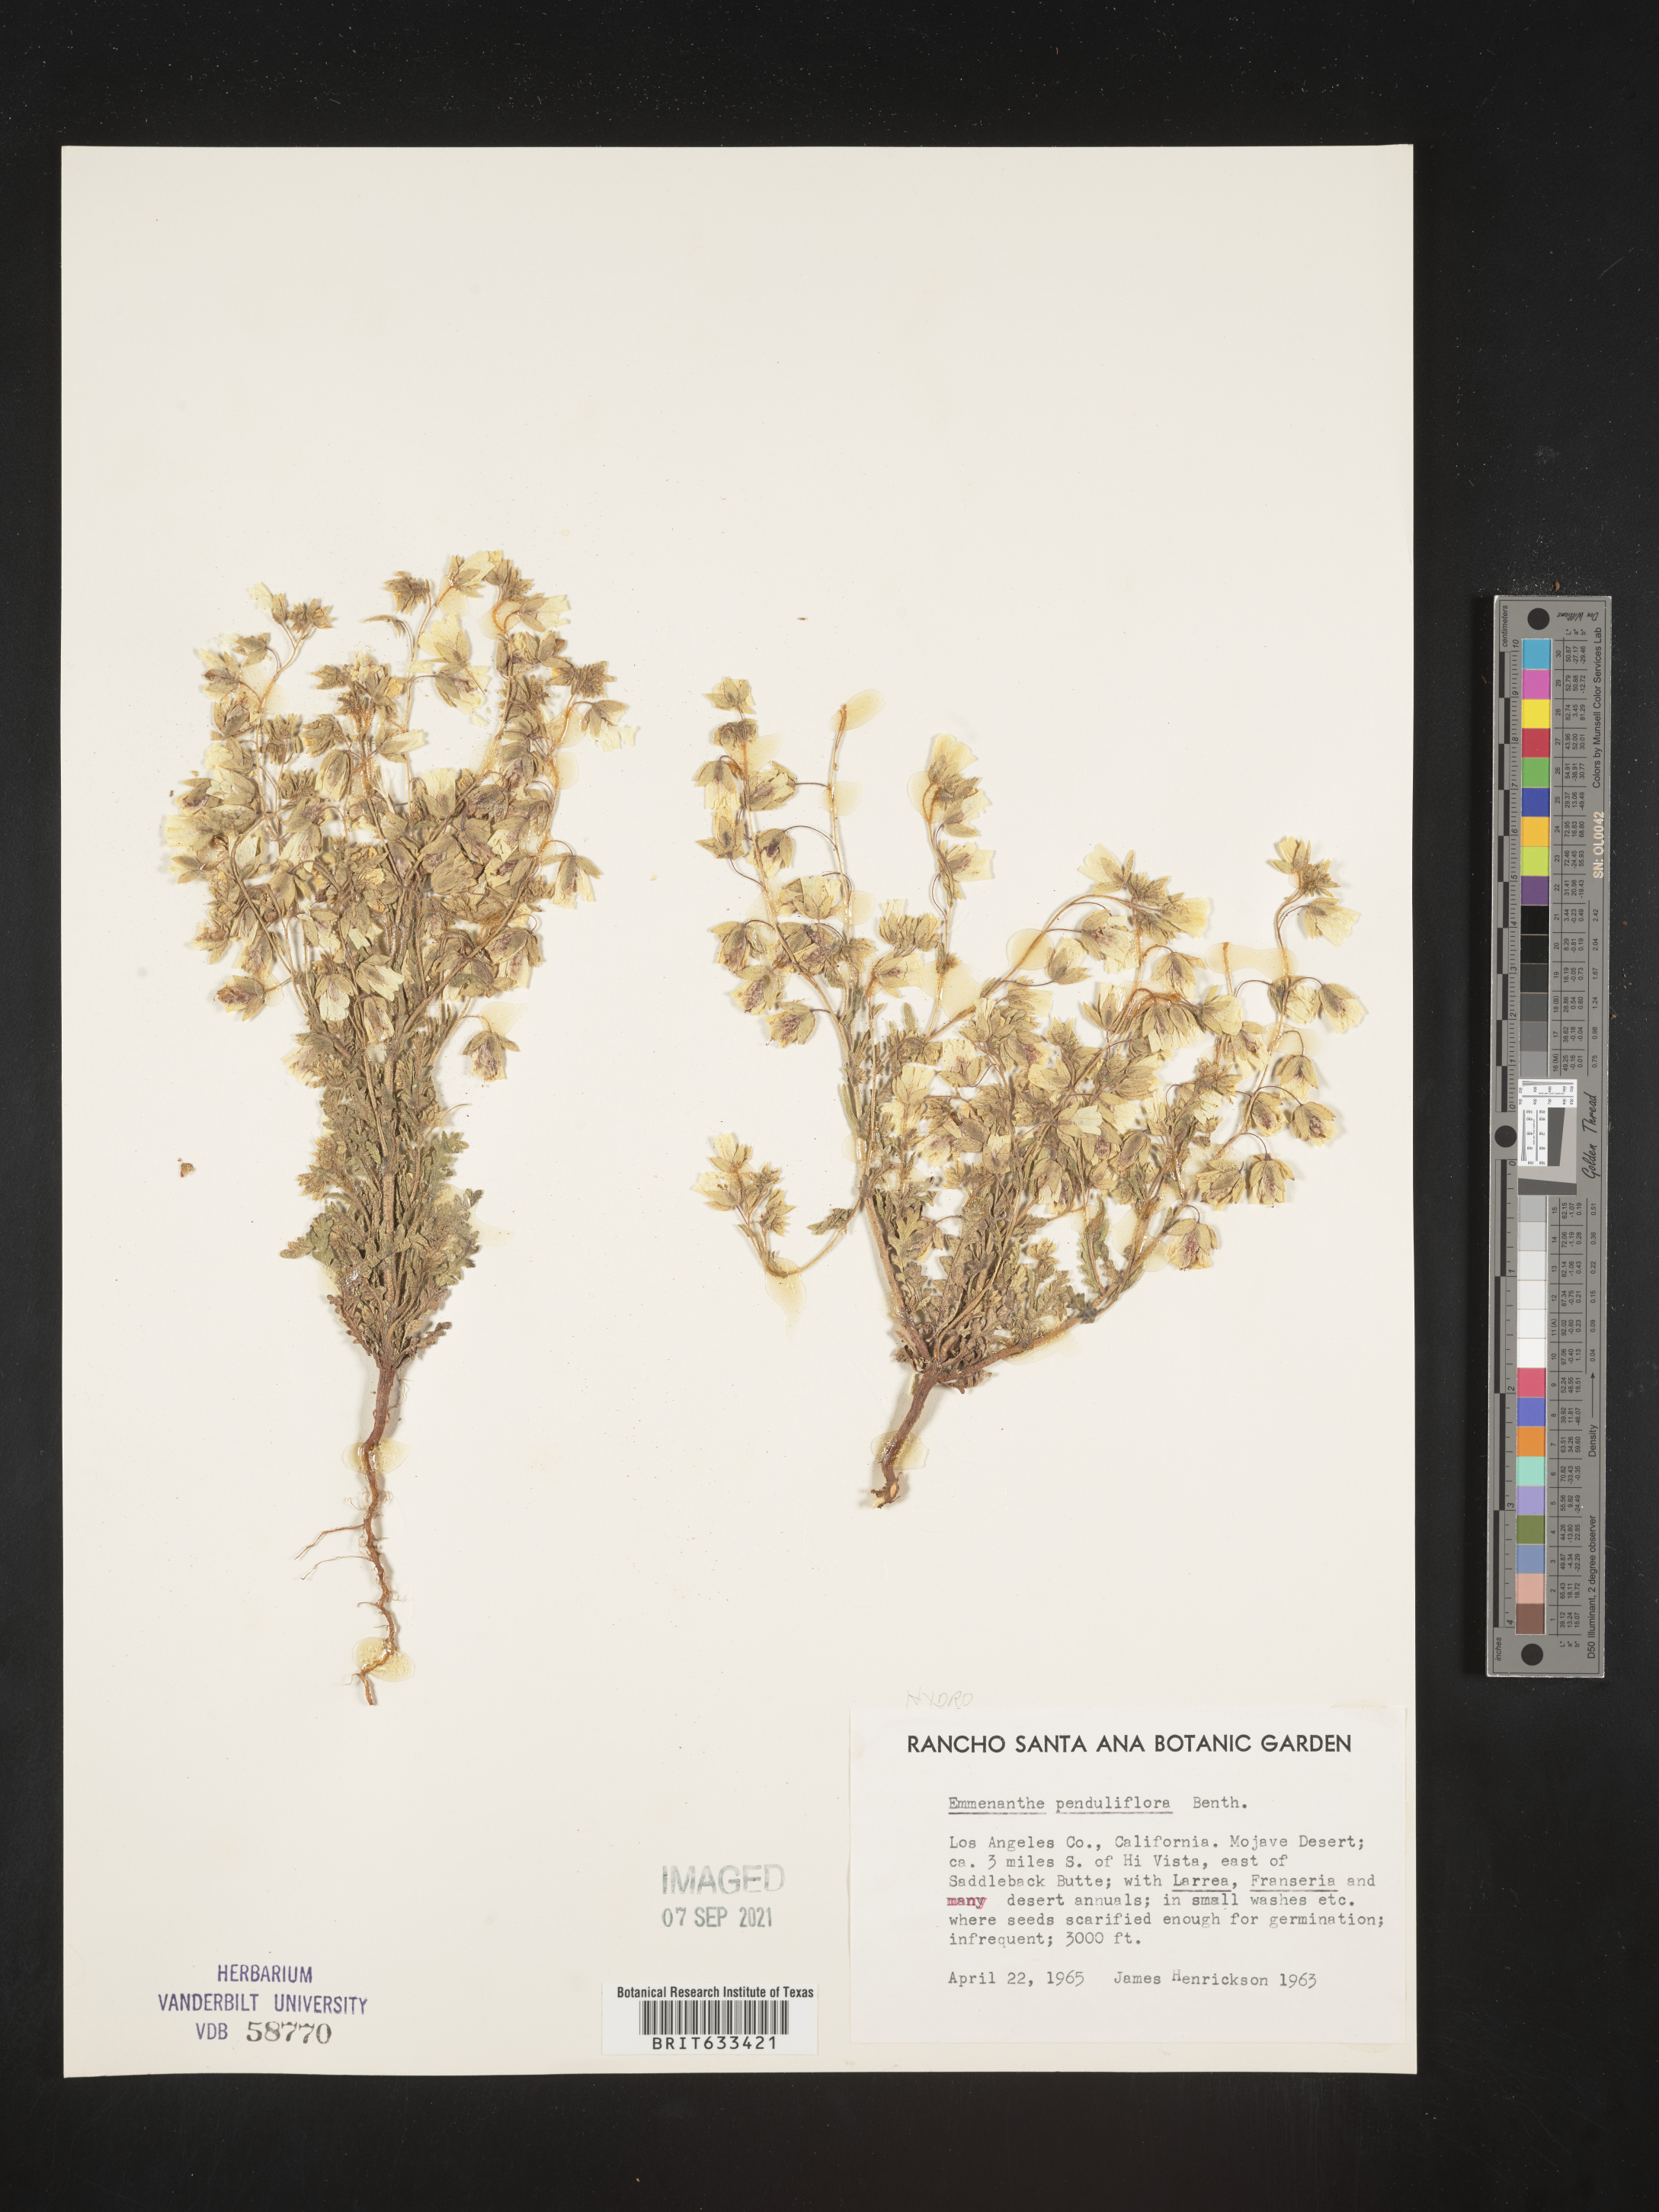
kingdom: Plantae
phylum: Tracheophyta
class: Magnoliopsida
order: Boraginales
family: Hydrophyllaceae
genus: Emmenanthe
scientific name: Emmenanthe
